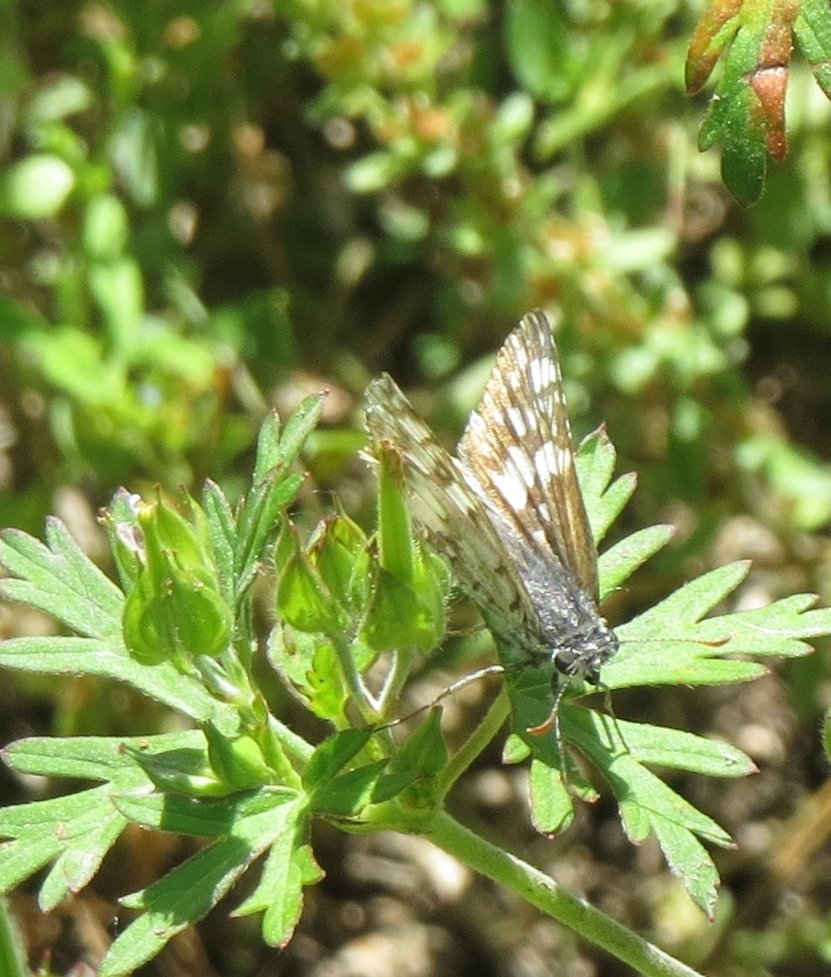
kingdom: Animalia
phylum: Arthropoda
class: Insecta
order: Lepidoptera
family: Hesperiidae
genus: Pyrgus
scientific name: Pyrgus oileus
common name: Tropical Checkered-Skipper
